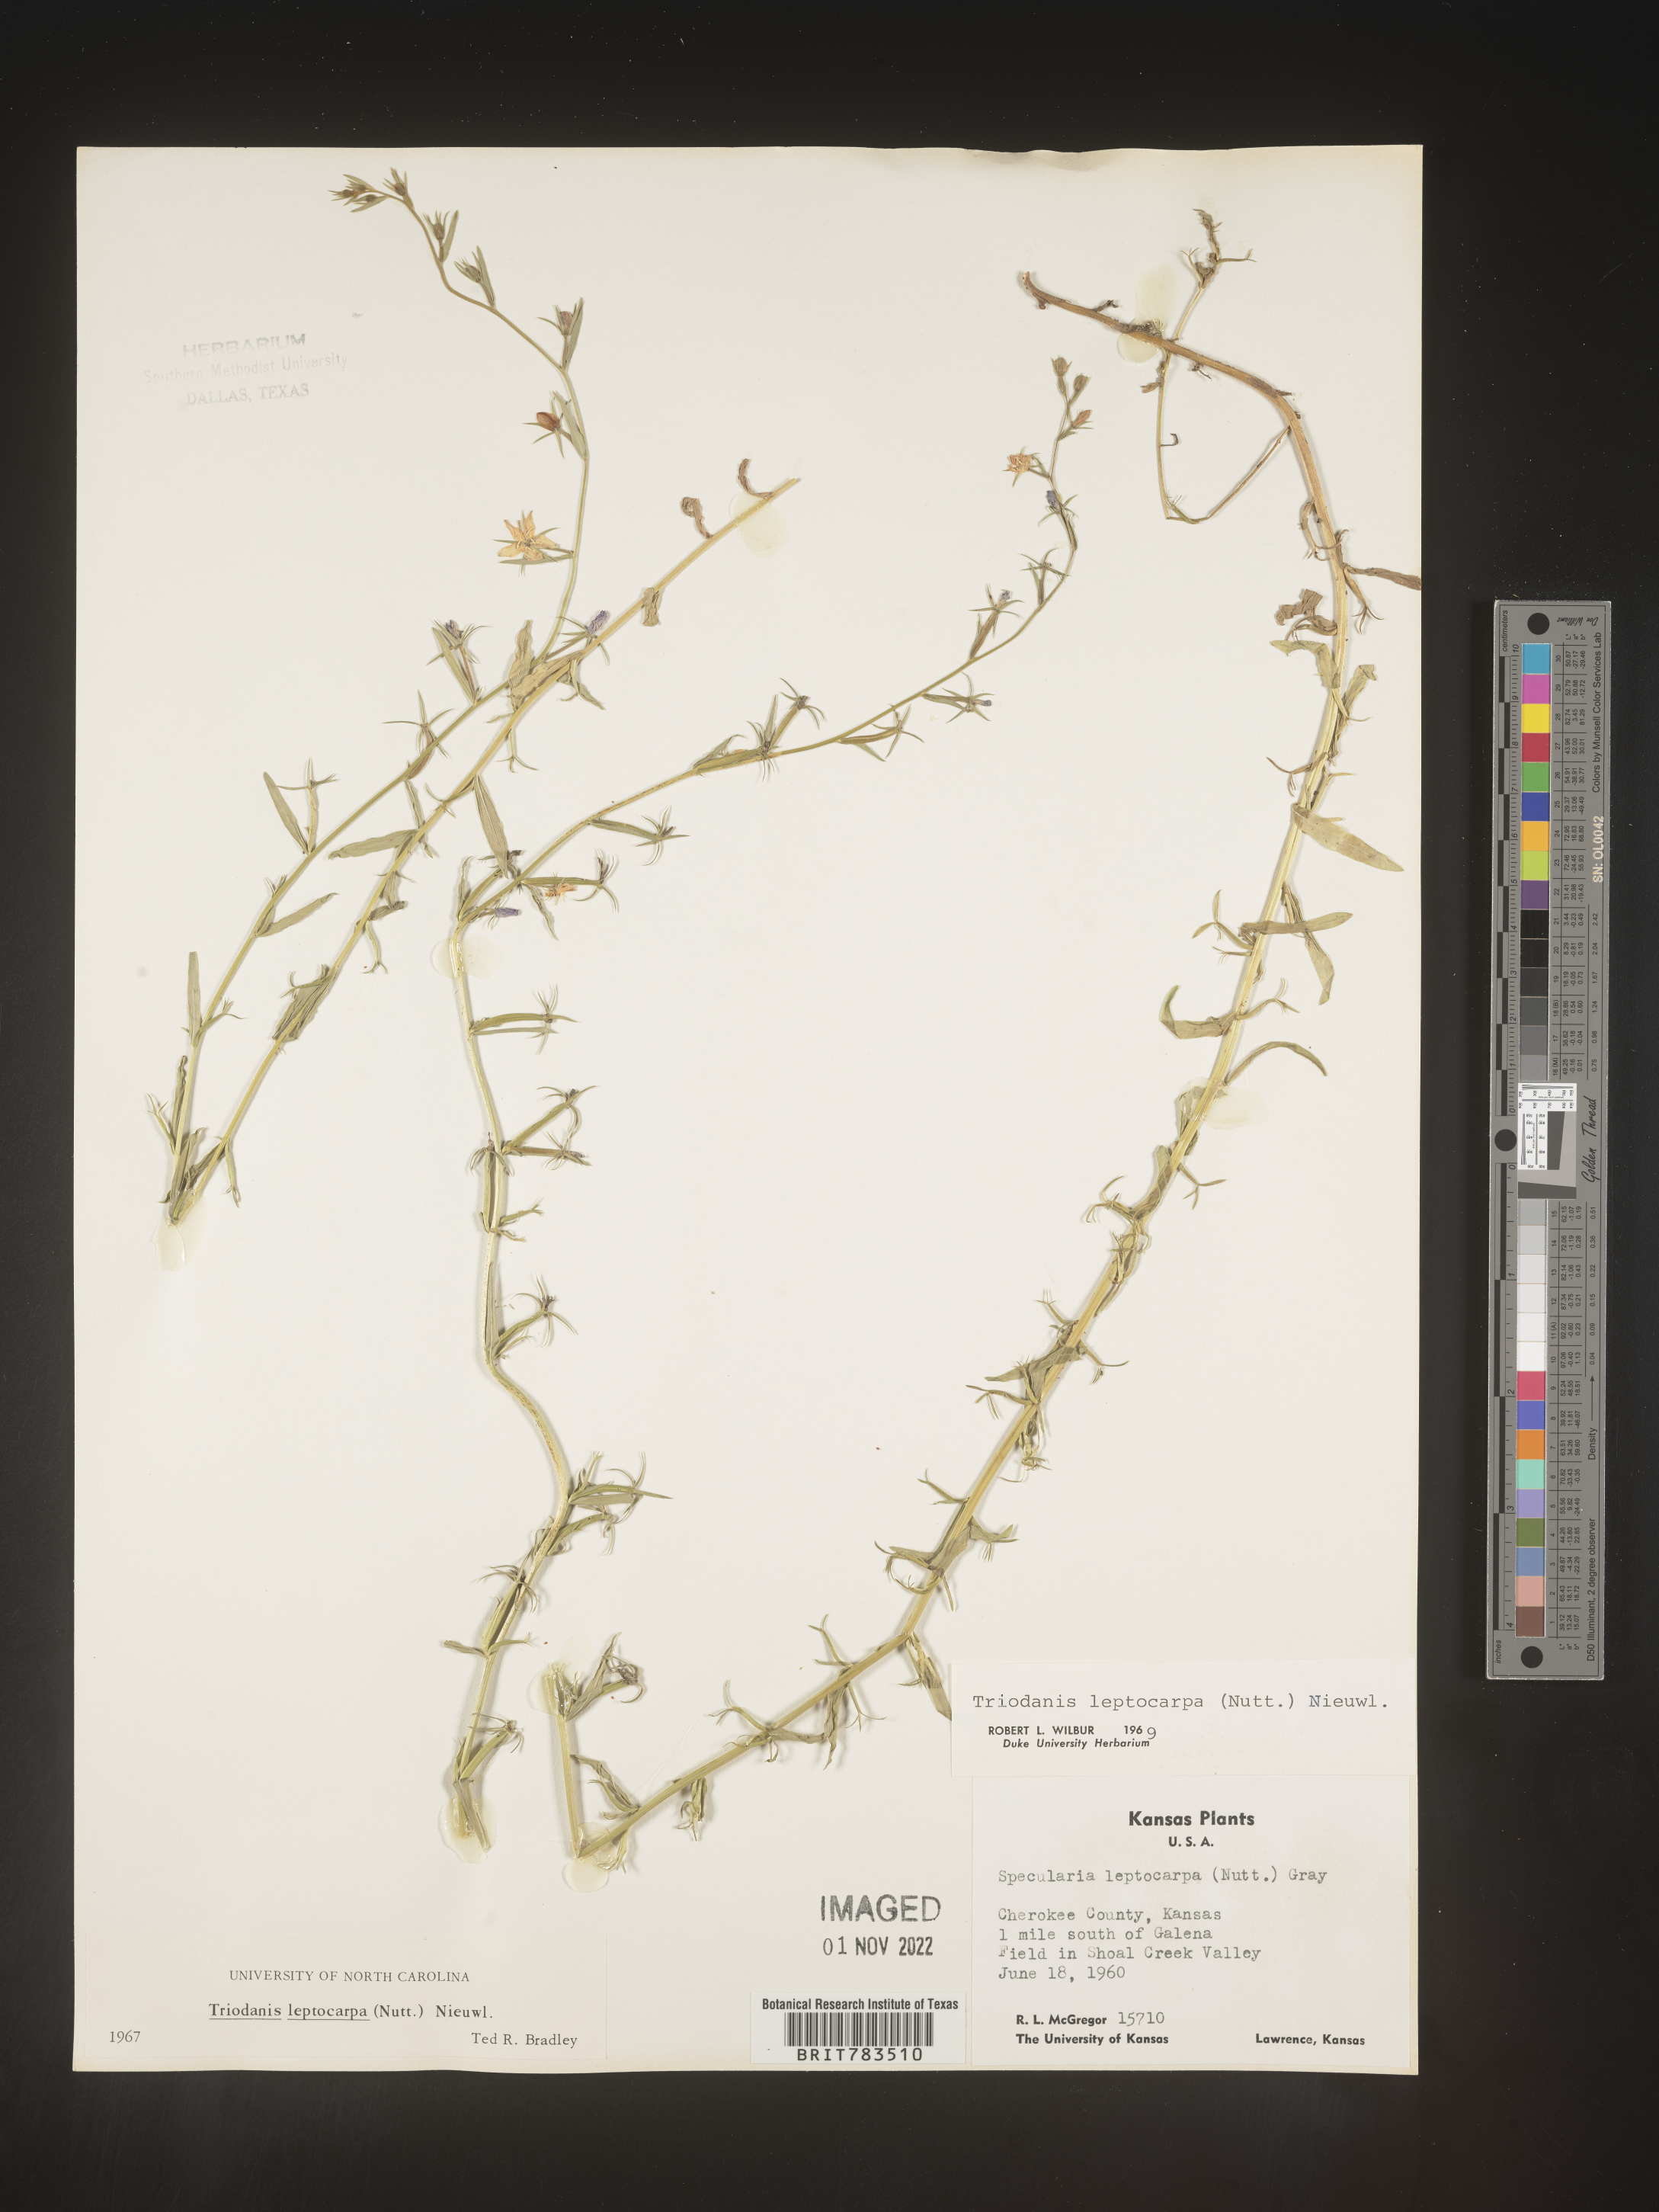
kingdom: Plantae
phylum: Tracheophyta
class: Magnoliopsida
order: Asterales
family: Campanulaceae
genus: Triodanis
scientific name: Triodanis leptocarpa
